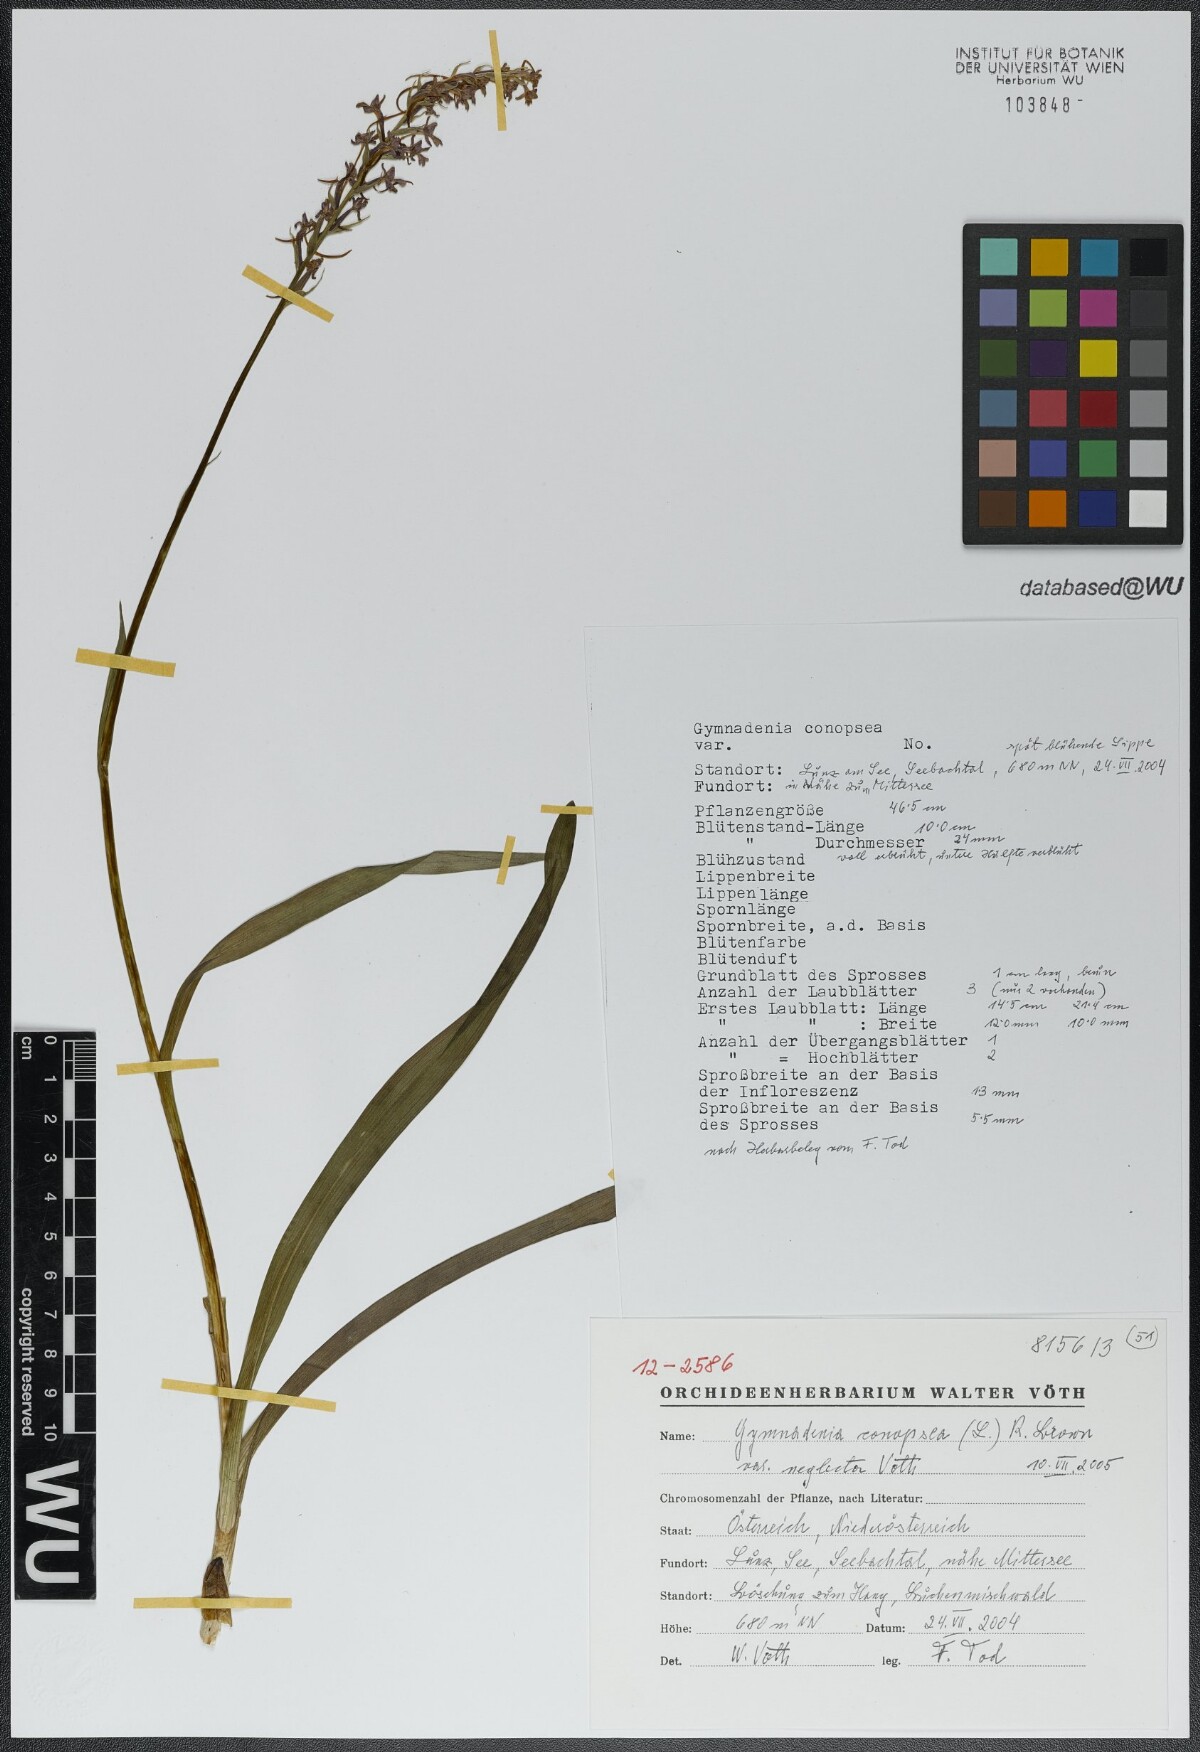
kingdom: Plantae
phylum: Tracheophyta
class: Liliopsida
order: Asparagales
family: Orchidaceae
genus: Gymnadenia
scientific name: Gymnadenia conopsea
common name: Fragrant orchid
